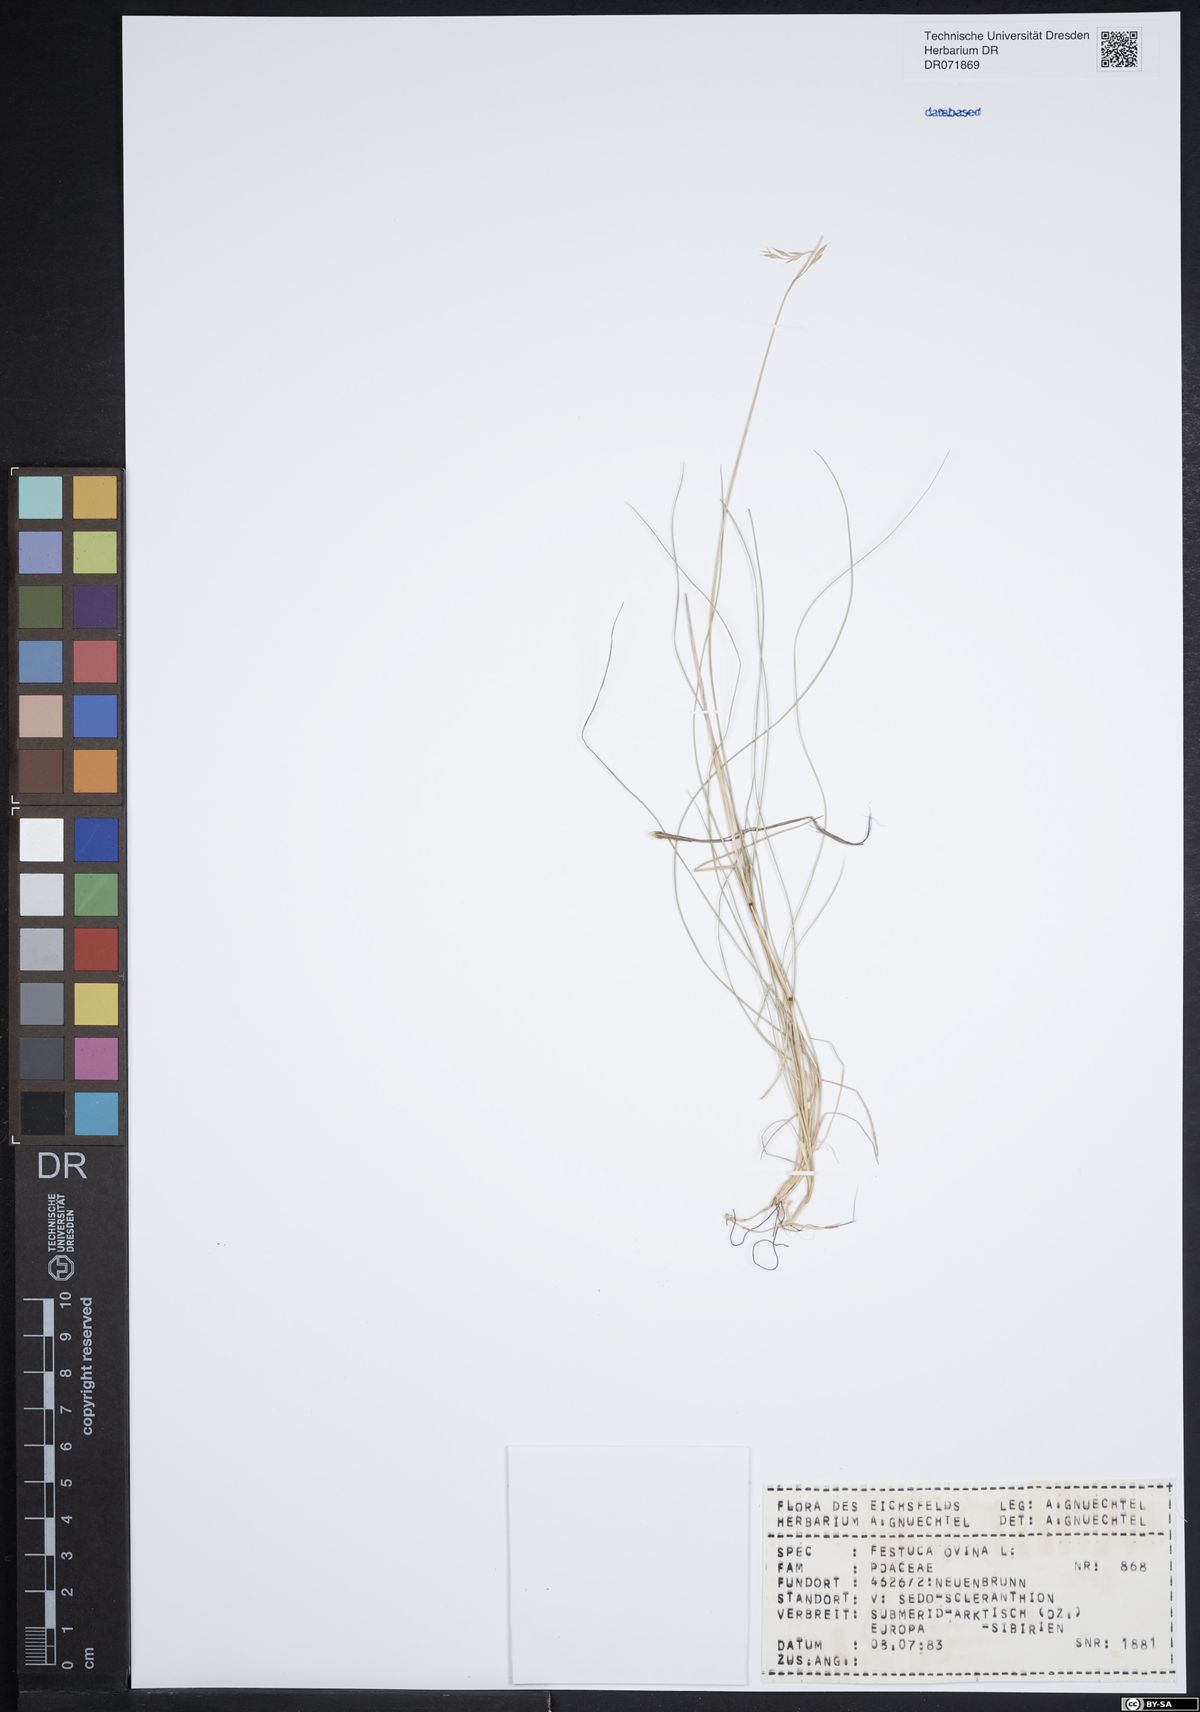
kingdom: Plantae
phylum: Tracheophyta
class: Liliopsida
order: Poales
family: Poaceae
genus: Festuca
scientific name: Festuca ovina
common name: Sheep fescue
